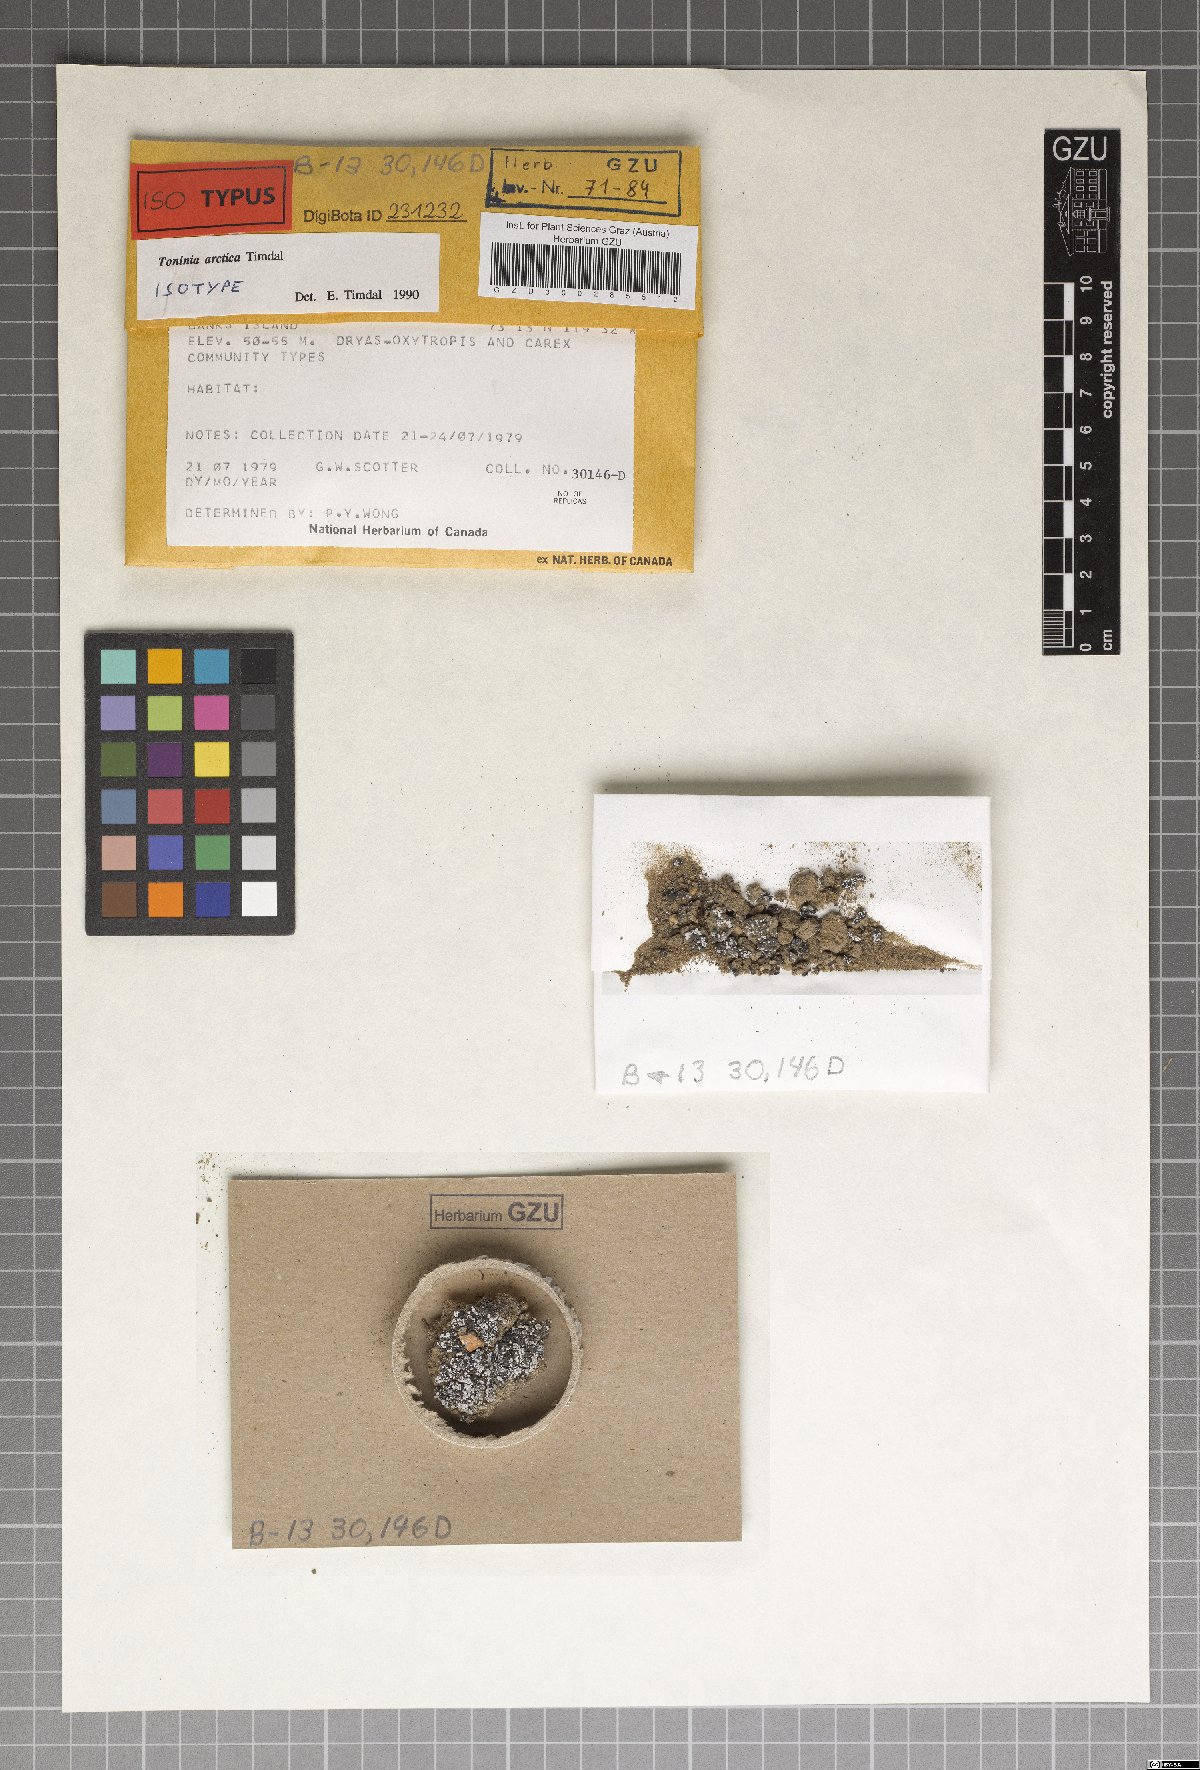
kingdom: Fungi
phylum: Ascomycota
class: Lecanoromycetes
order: Lecanorales
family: Ramalinaceae
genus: Thalloidima
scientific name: Thalloidima arcticum
